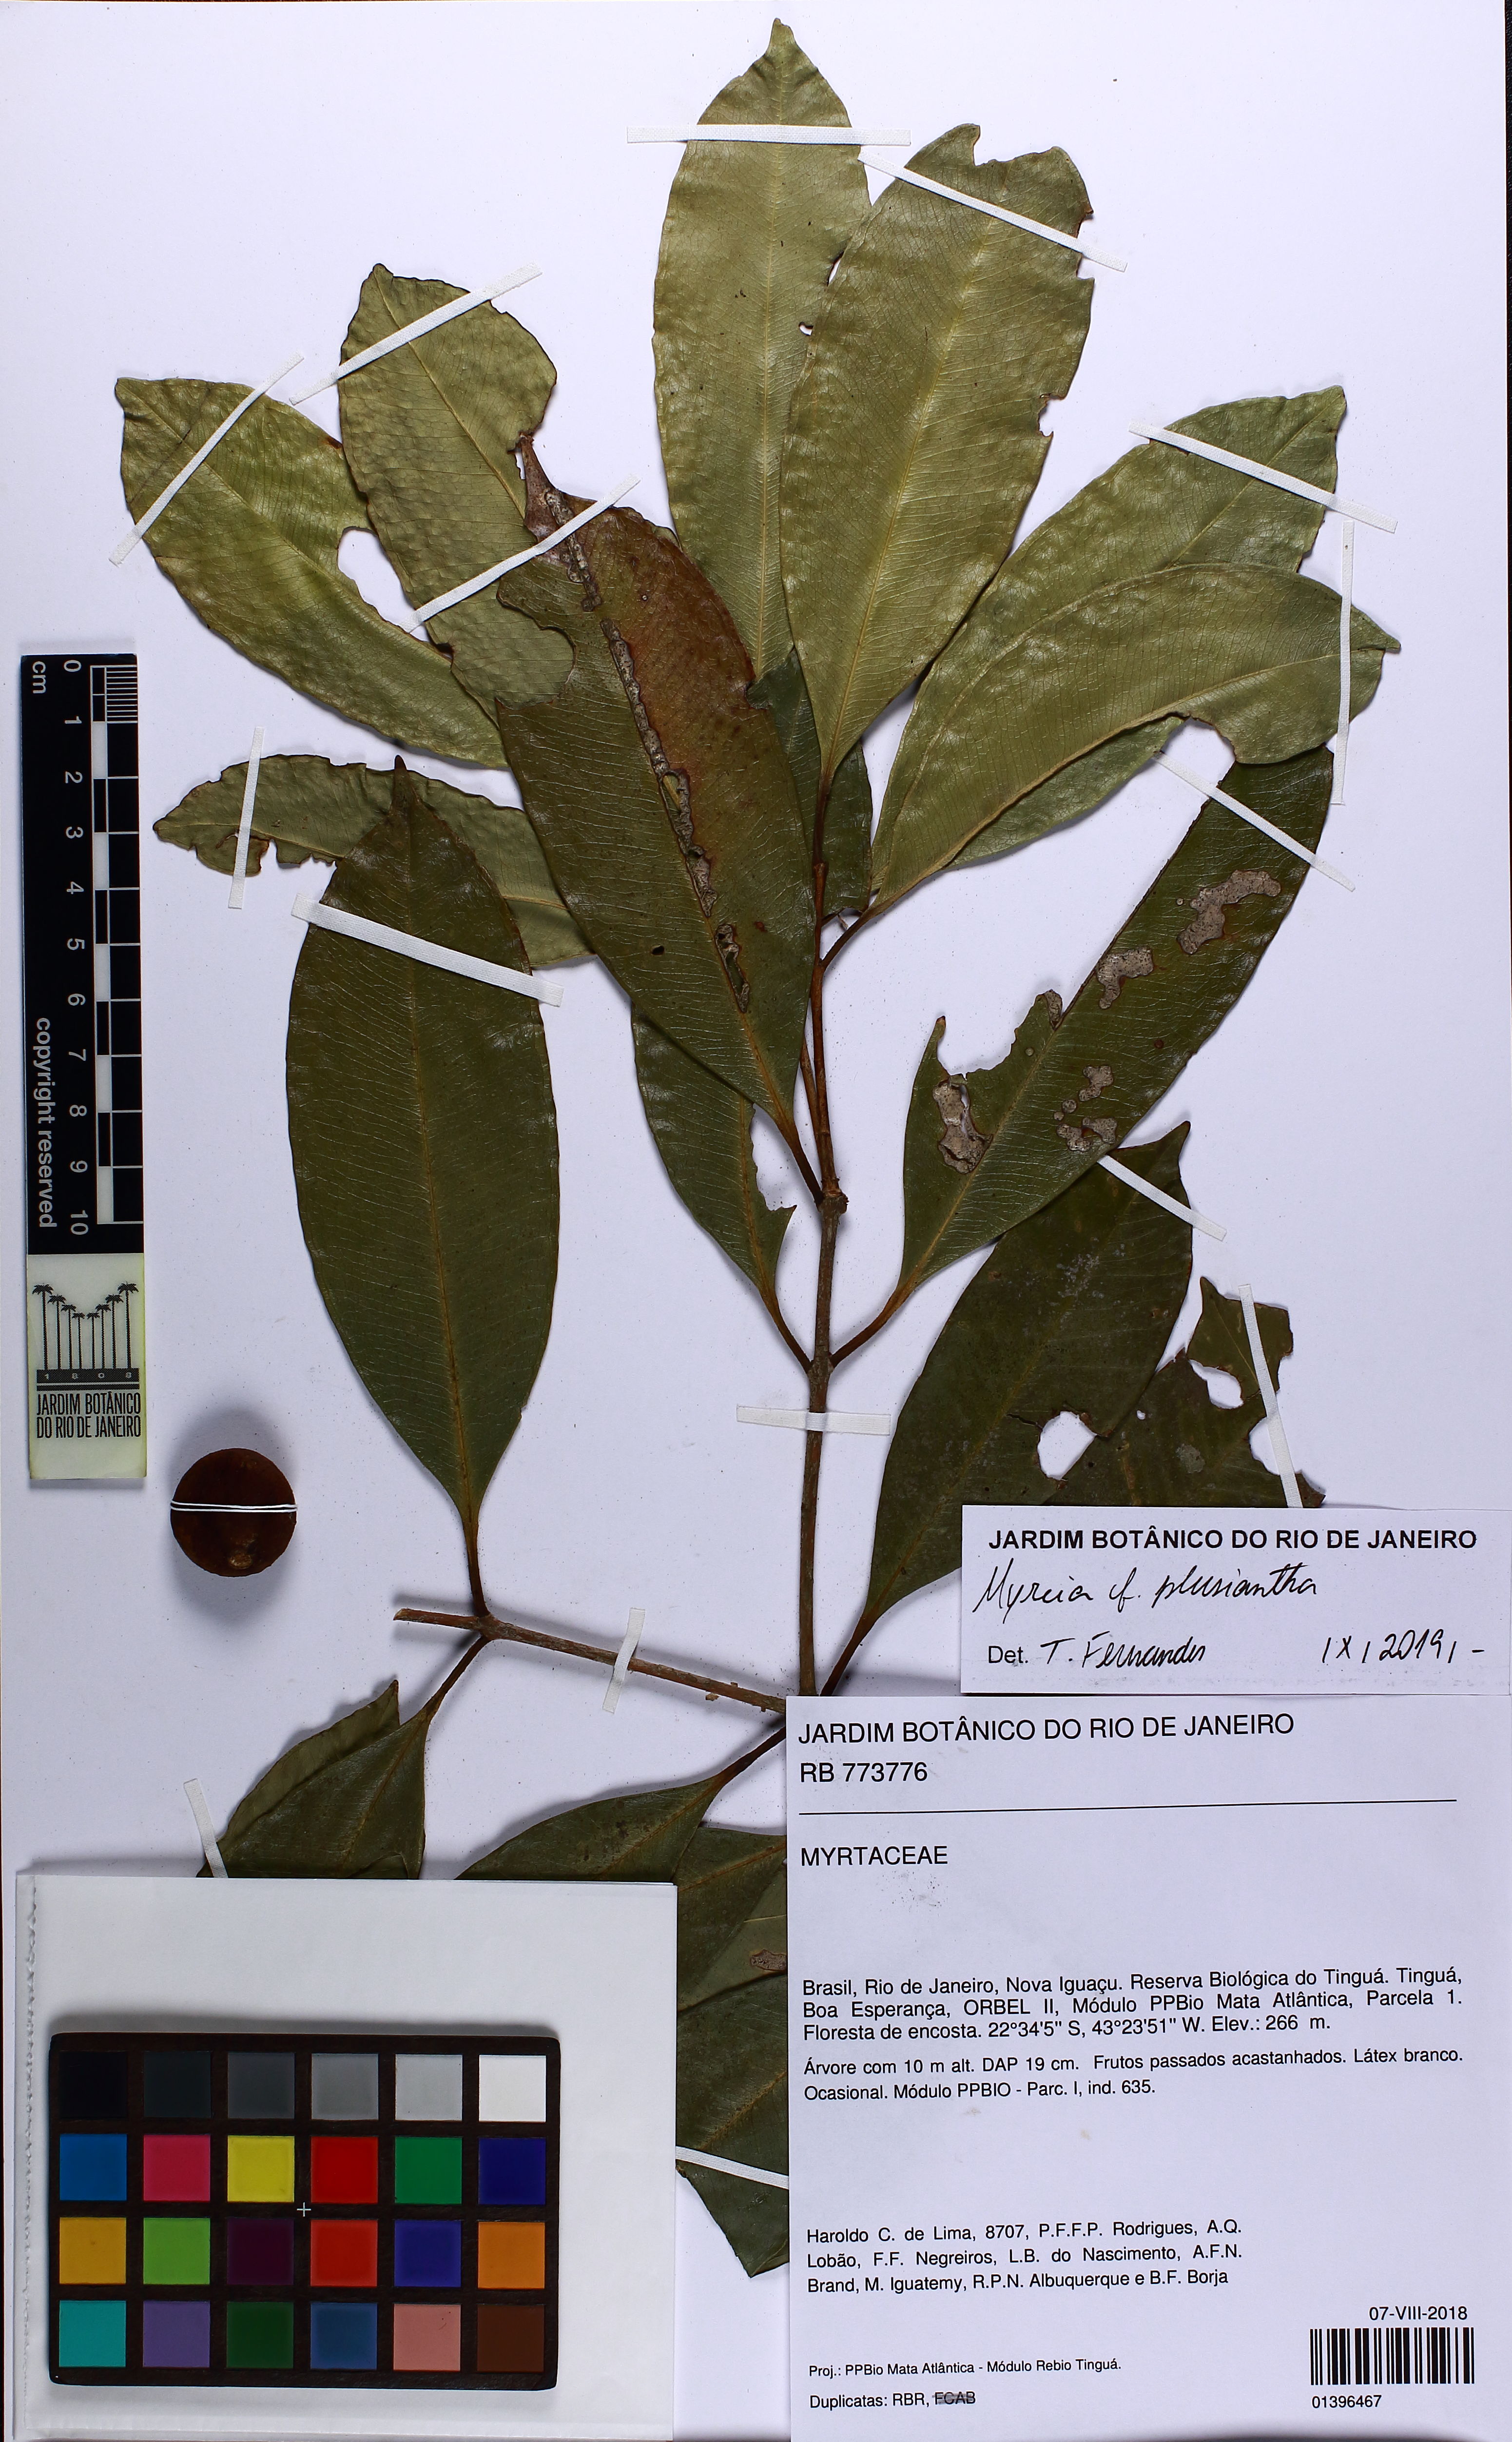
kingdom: Plantae
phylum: Tracheophyta
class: Magnoliopsida
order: Myrtales
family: Myrtaceae
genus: Myrcia
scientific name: Myrcia plusiantha
